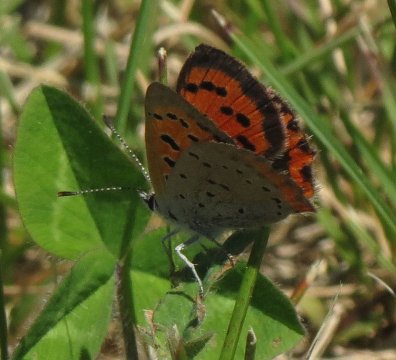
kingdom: Animalia
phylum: Arthropoda
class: Insecta
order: Lepidoptera
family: Lycaenidae
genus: Lycaena
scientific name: Lycaena phlaeas
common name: American Copper
